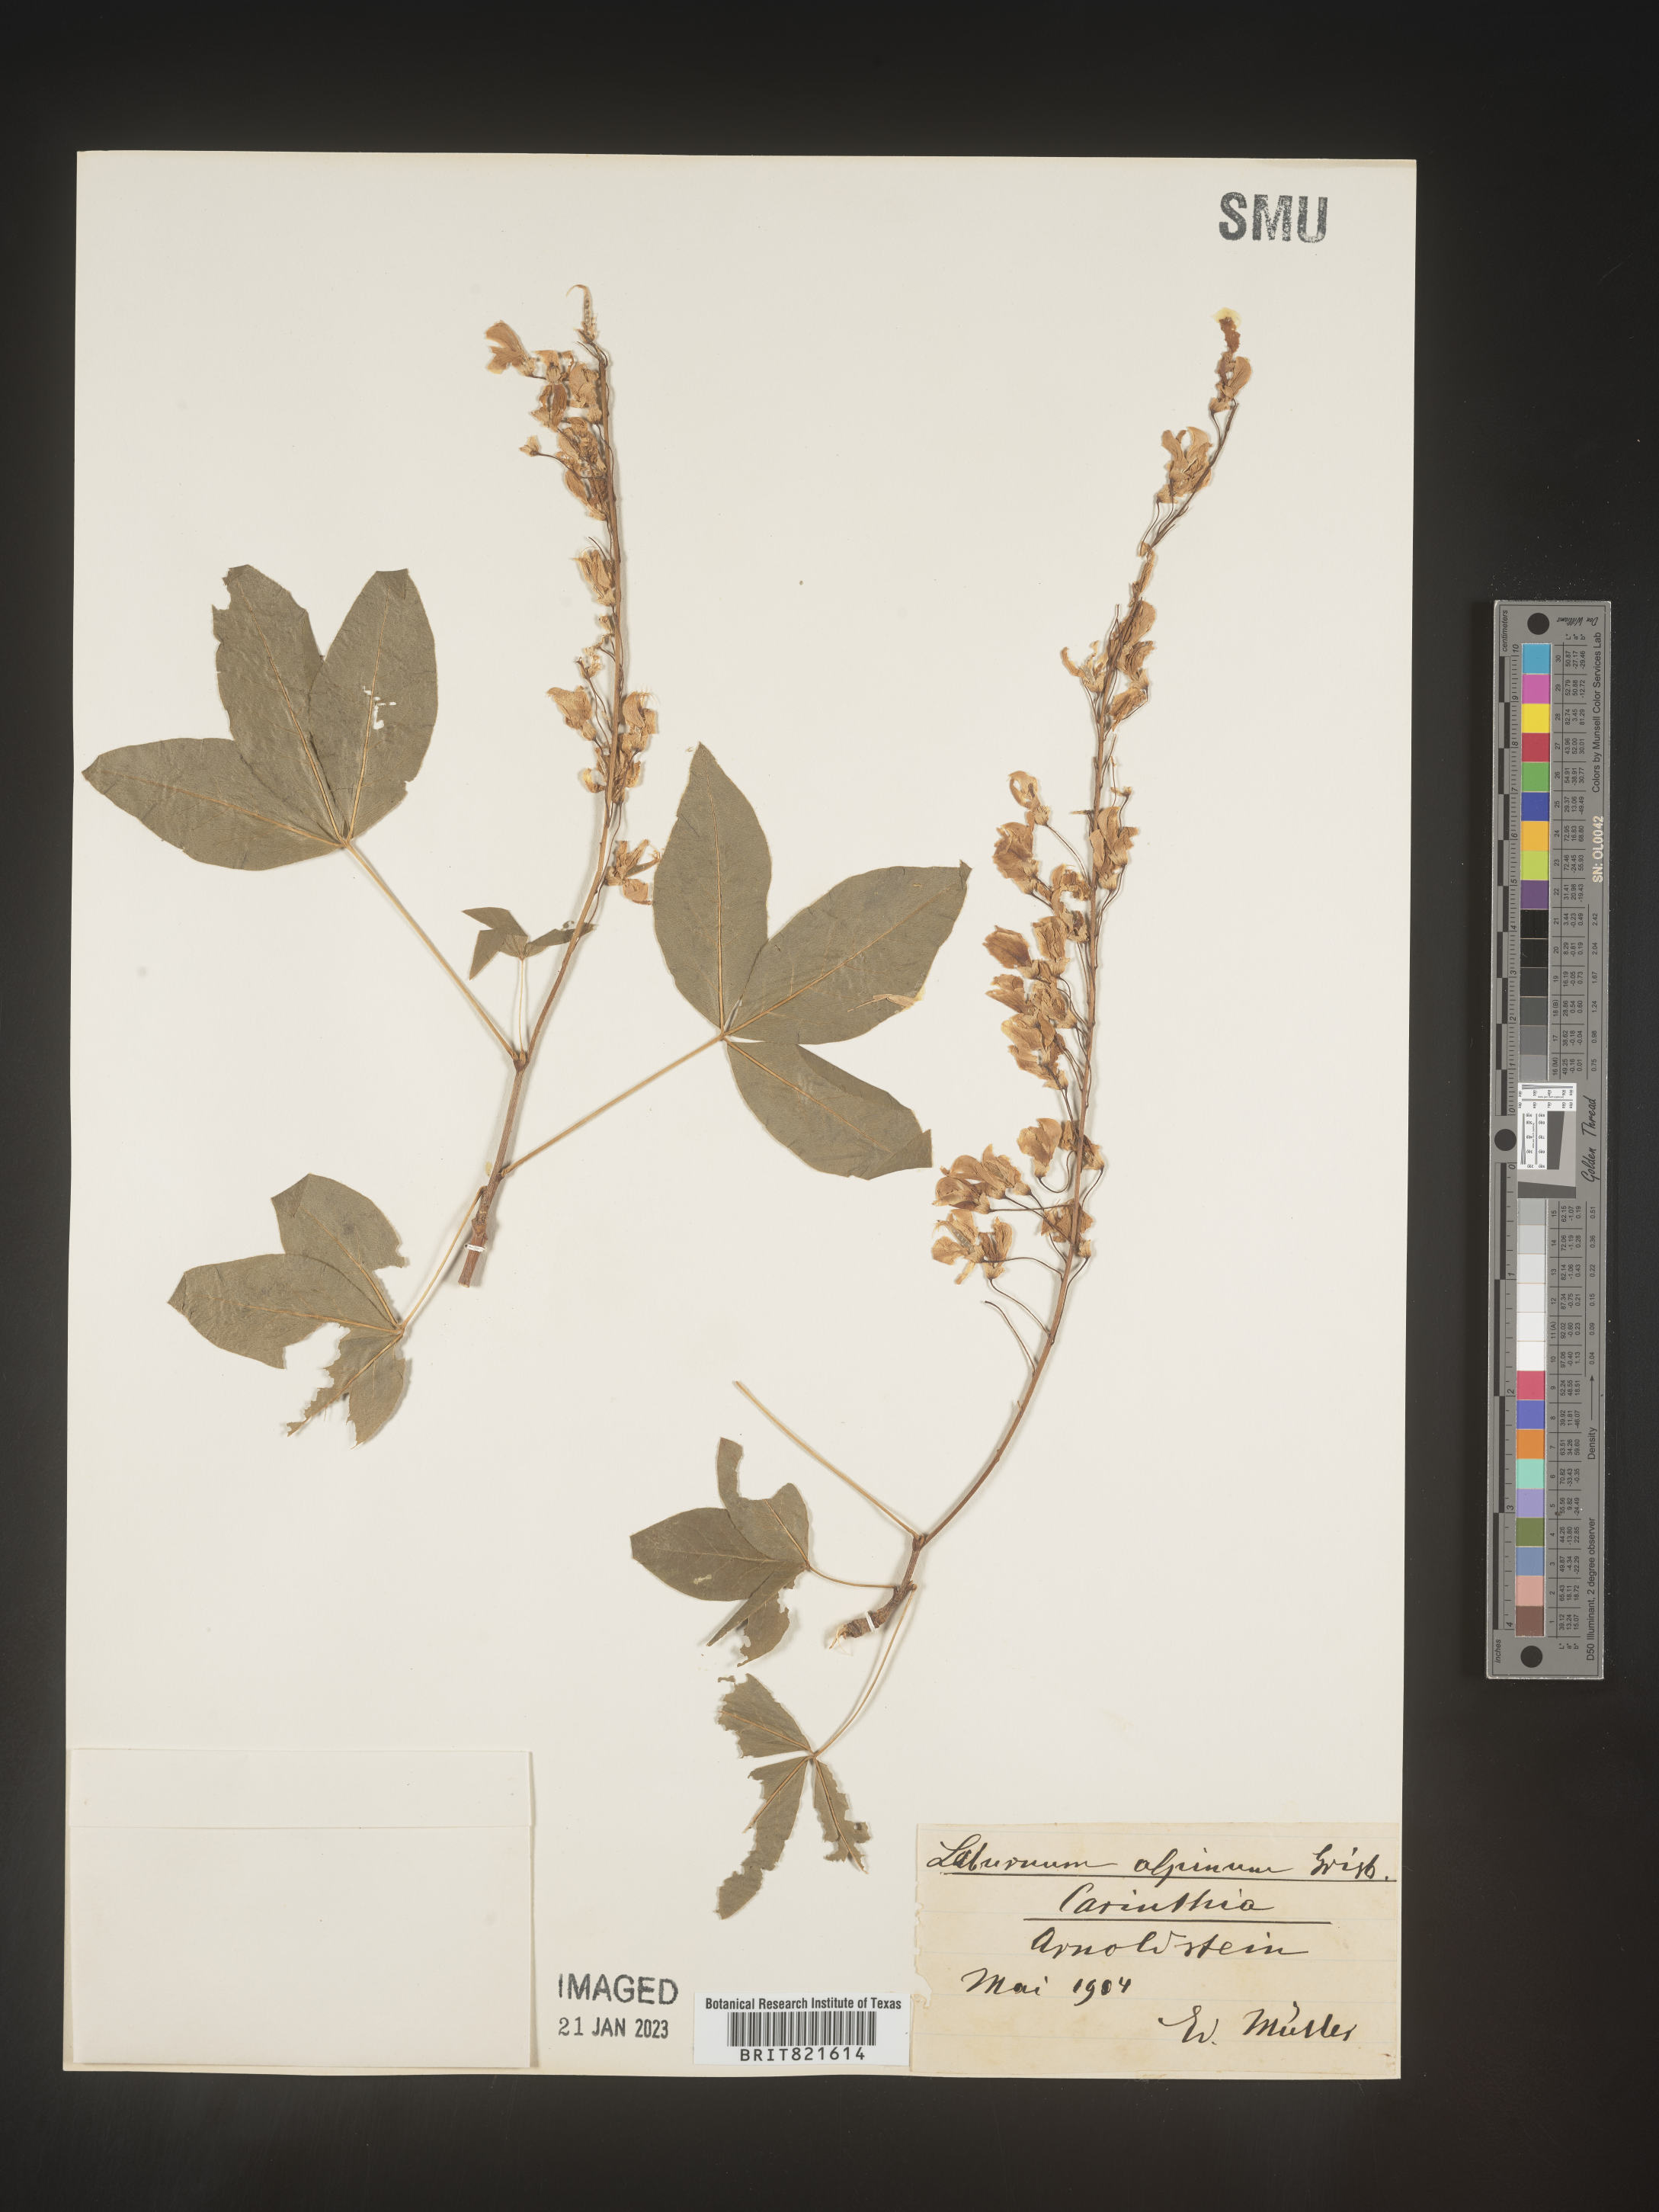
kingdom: Plantae
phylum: Tracheophyta
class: Magnoliopsida
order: Fabales
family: Fabaceae
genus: Laburnum
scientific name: Laburnum
